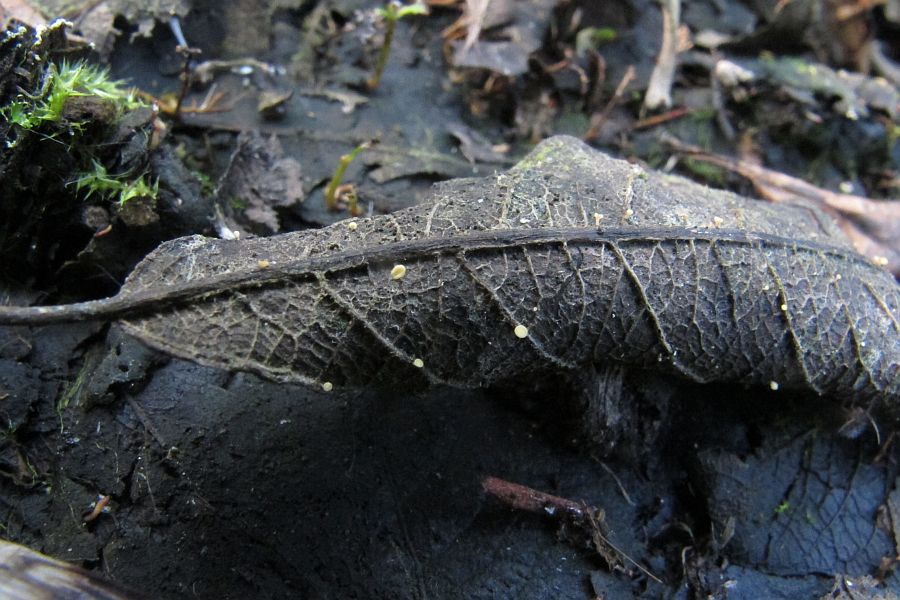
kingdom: Fungi
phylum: Ascomycota
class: Leotiomycetes
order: Helotiales
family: Helotiaceae
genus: Hymenoscyphus
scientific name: Hymenoscyphus caudatus
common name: blad-stilkskive
